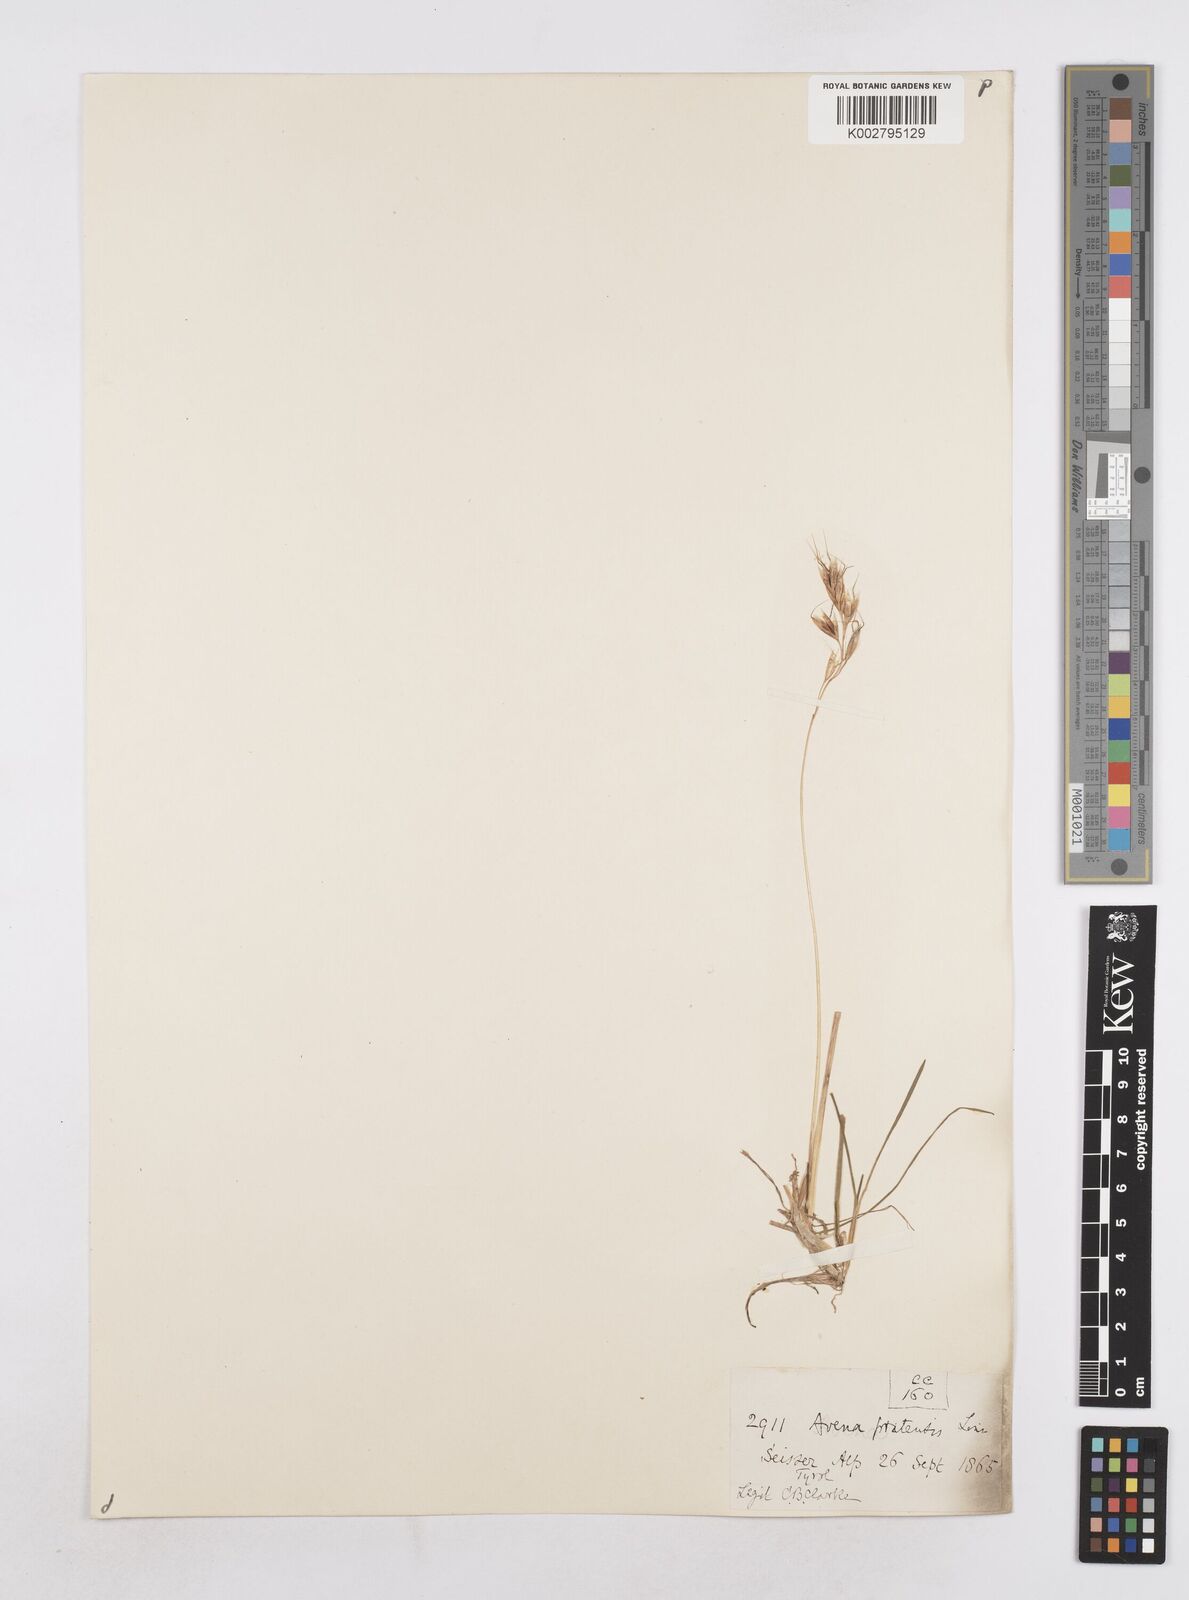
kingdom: Plantae
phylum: Tracheophyta
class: Liliopsida
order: Poales
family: Poaceae
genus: Helictochloa
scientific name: Helictochloa pratensis
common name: Meadow oat grass
